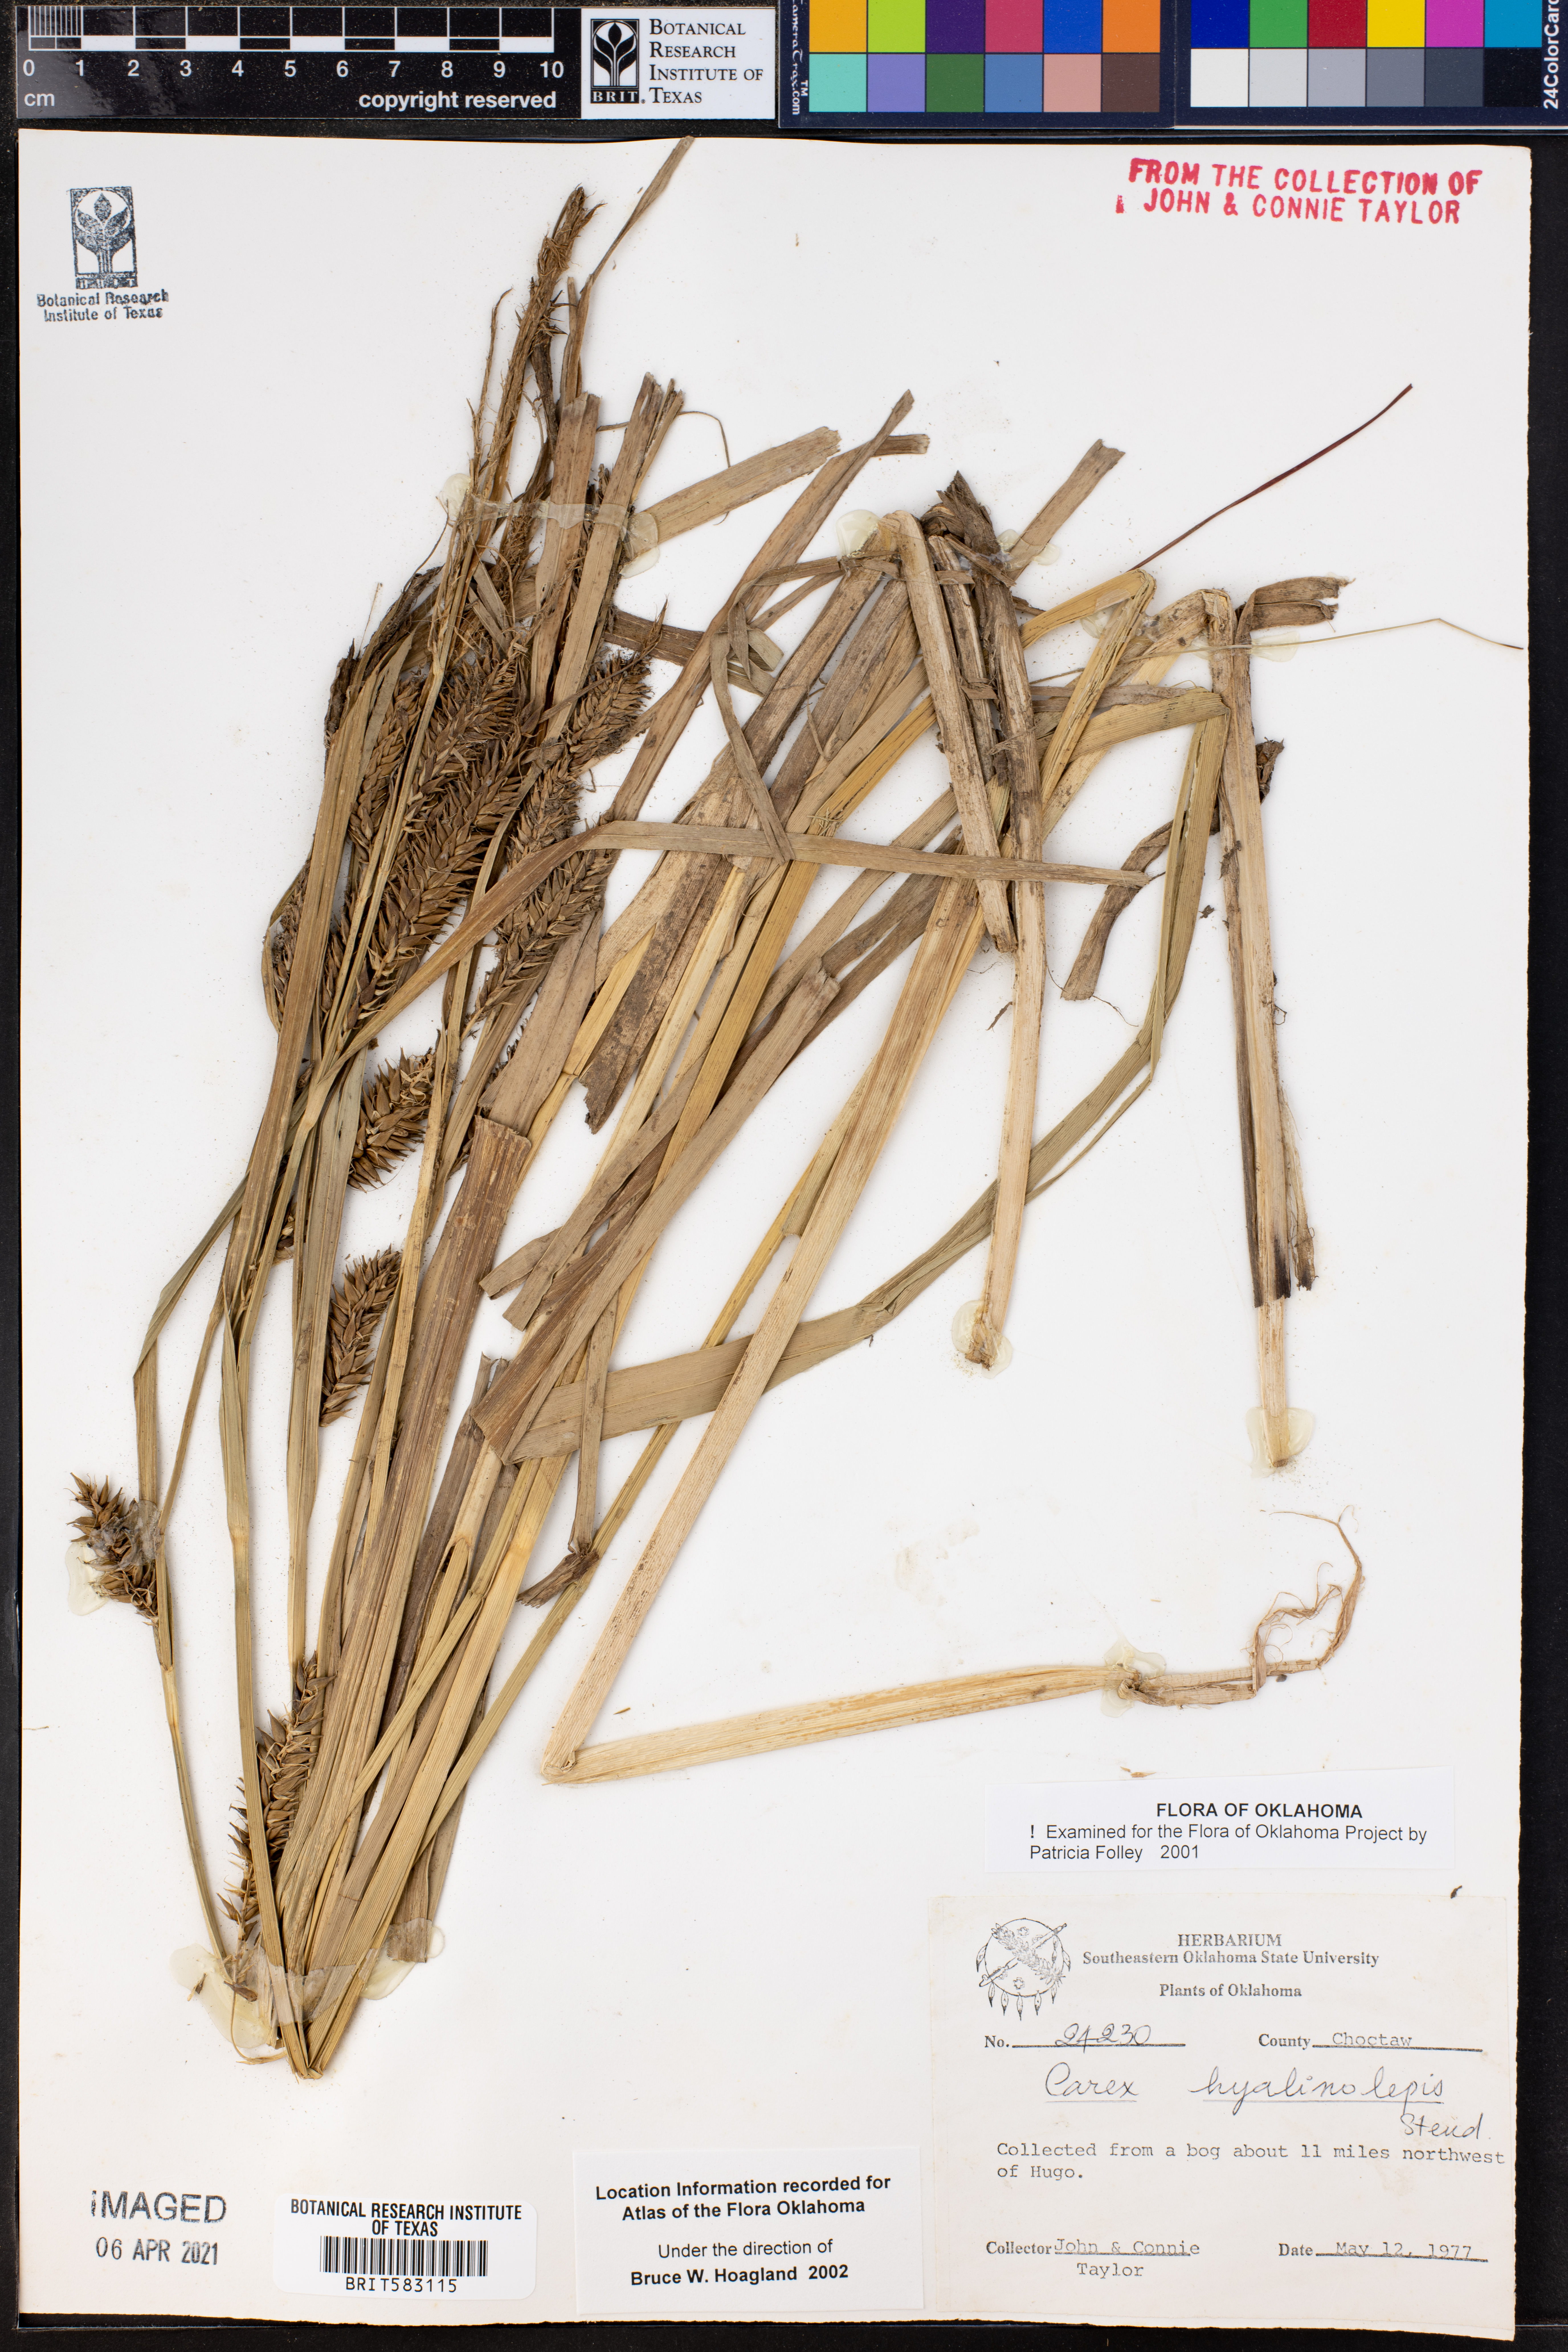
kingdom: Plantae
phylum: Tracheophyta
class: Liliopsida
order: Poales
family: Cyperaceae
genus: Carex
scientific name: Carex hyalinolepis
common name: Shoreline sedge
